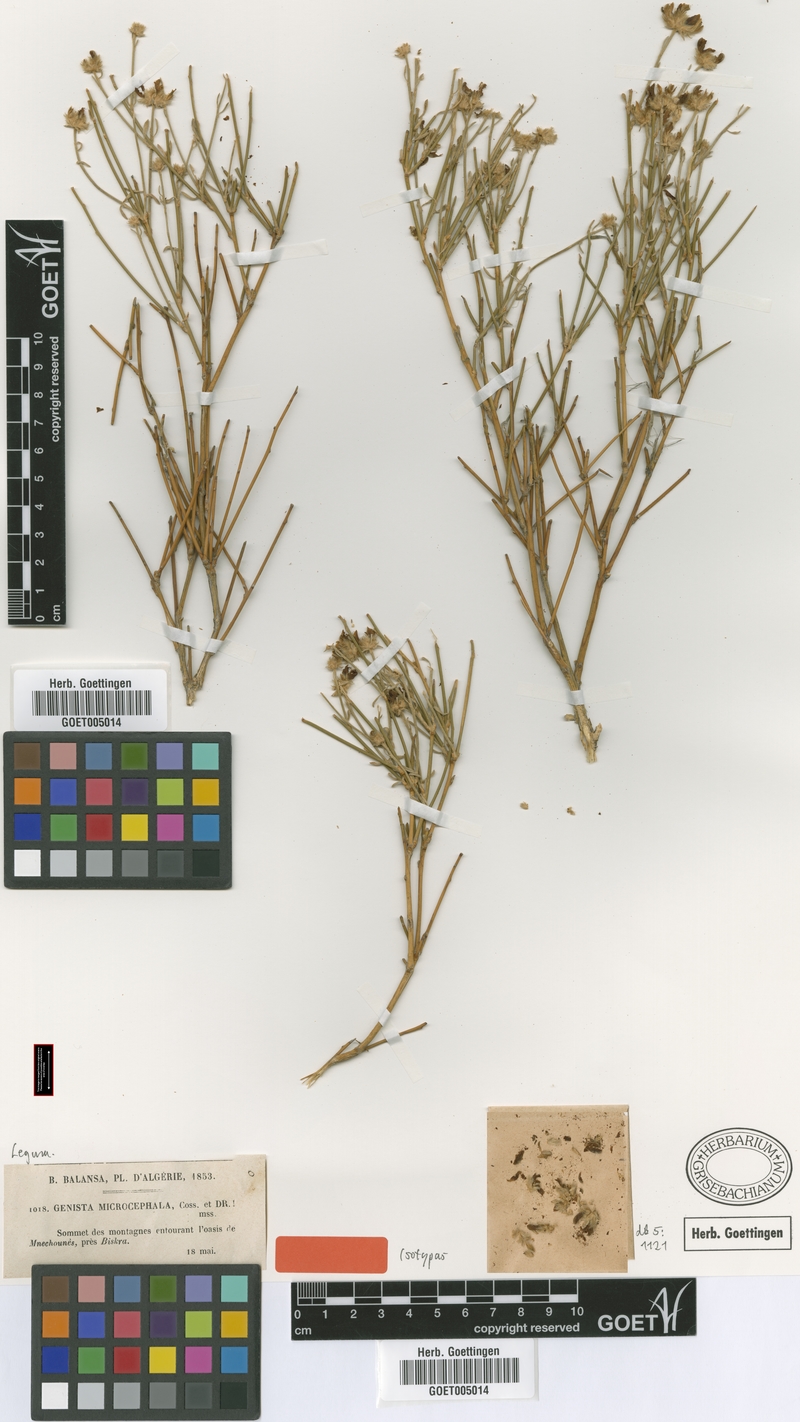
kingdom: Plantae
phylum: Tracheophyta
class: Magnoliopsida
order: Fabales
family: Fabaceae
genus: Genista
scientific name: Genista microcephala
